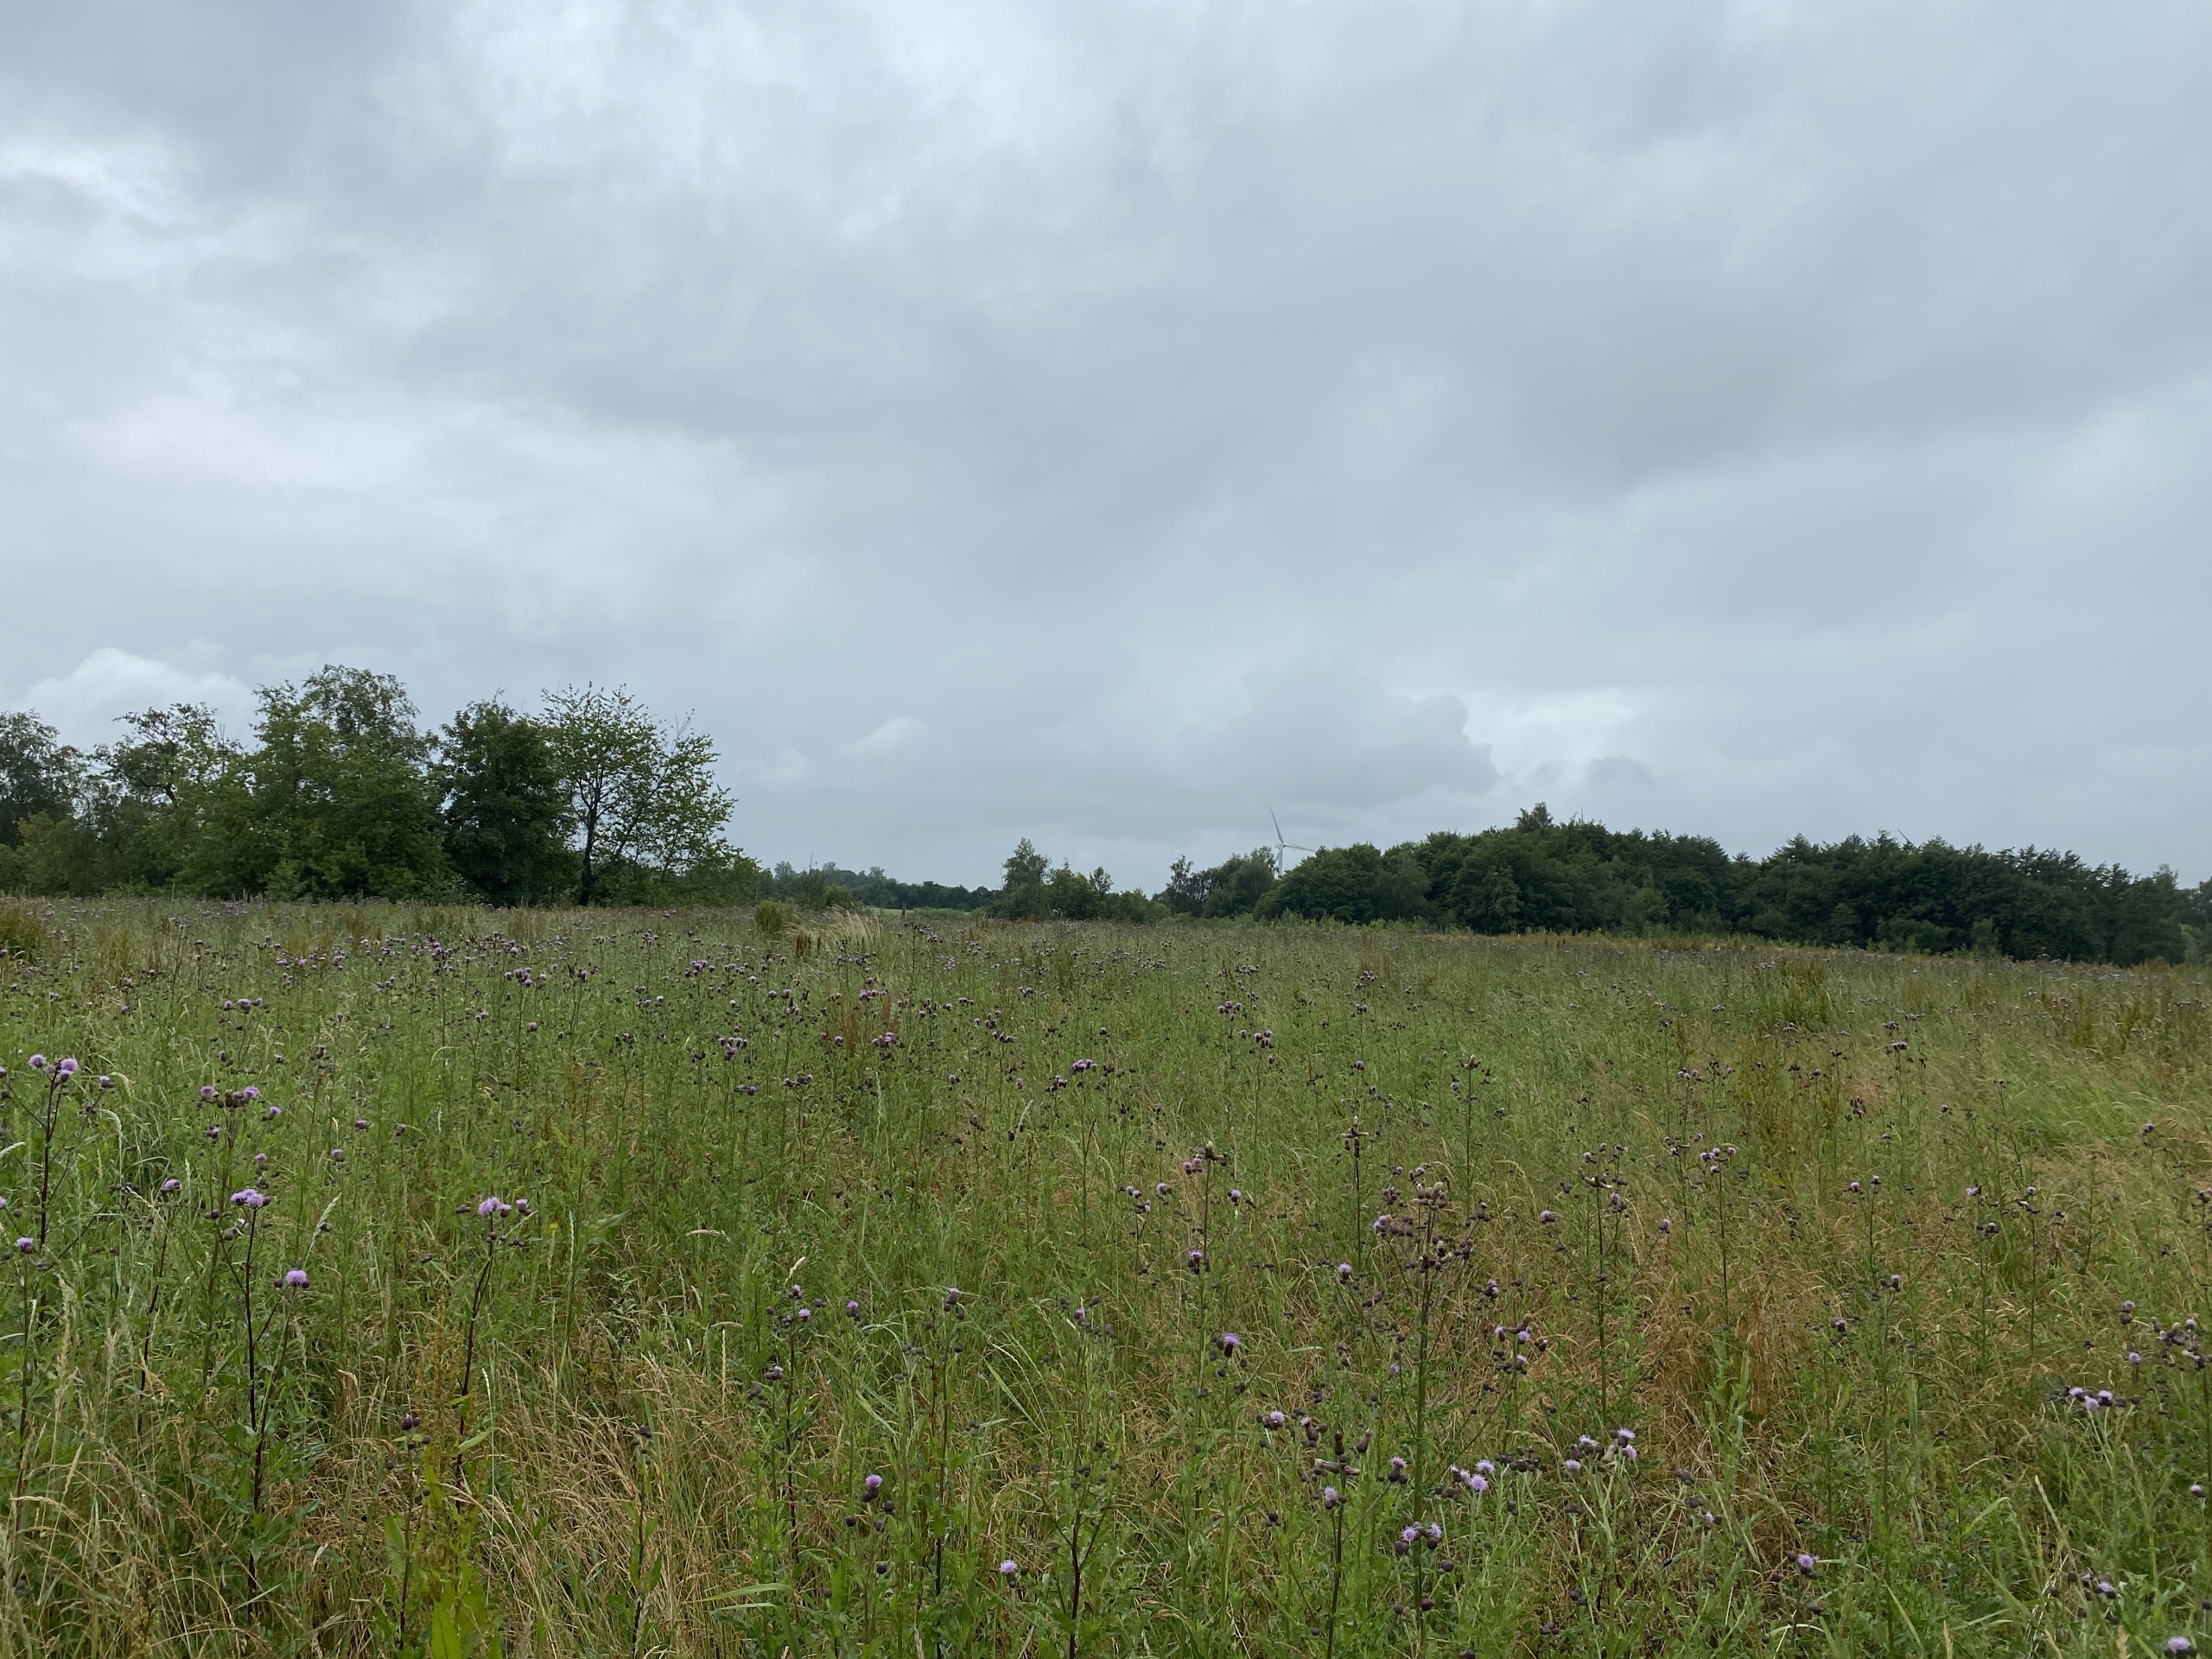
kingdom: Plantae
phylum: Tracheophyta
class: Magnoliopsida
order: Asterales
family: Asteraceae
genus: Cirsium
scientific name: Cirsium arvense
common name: Ager-tidsel
